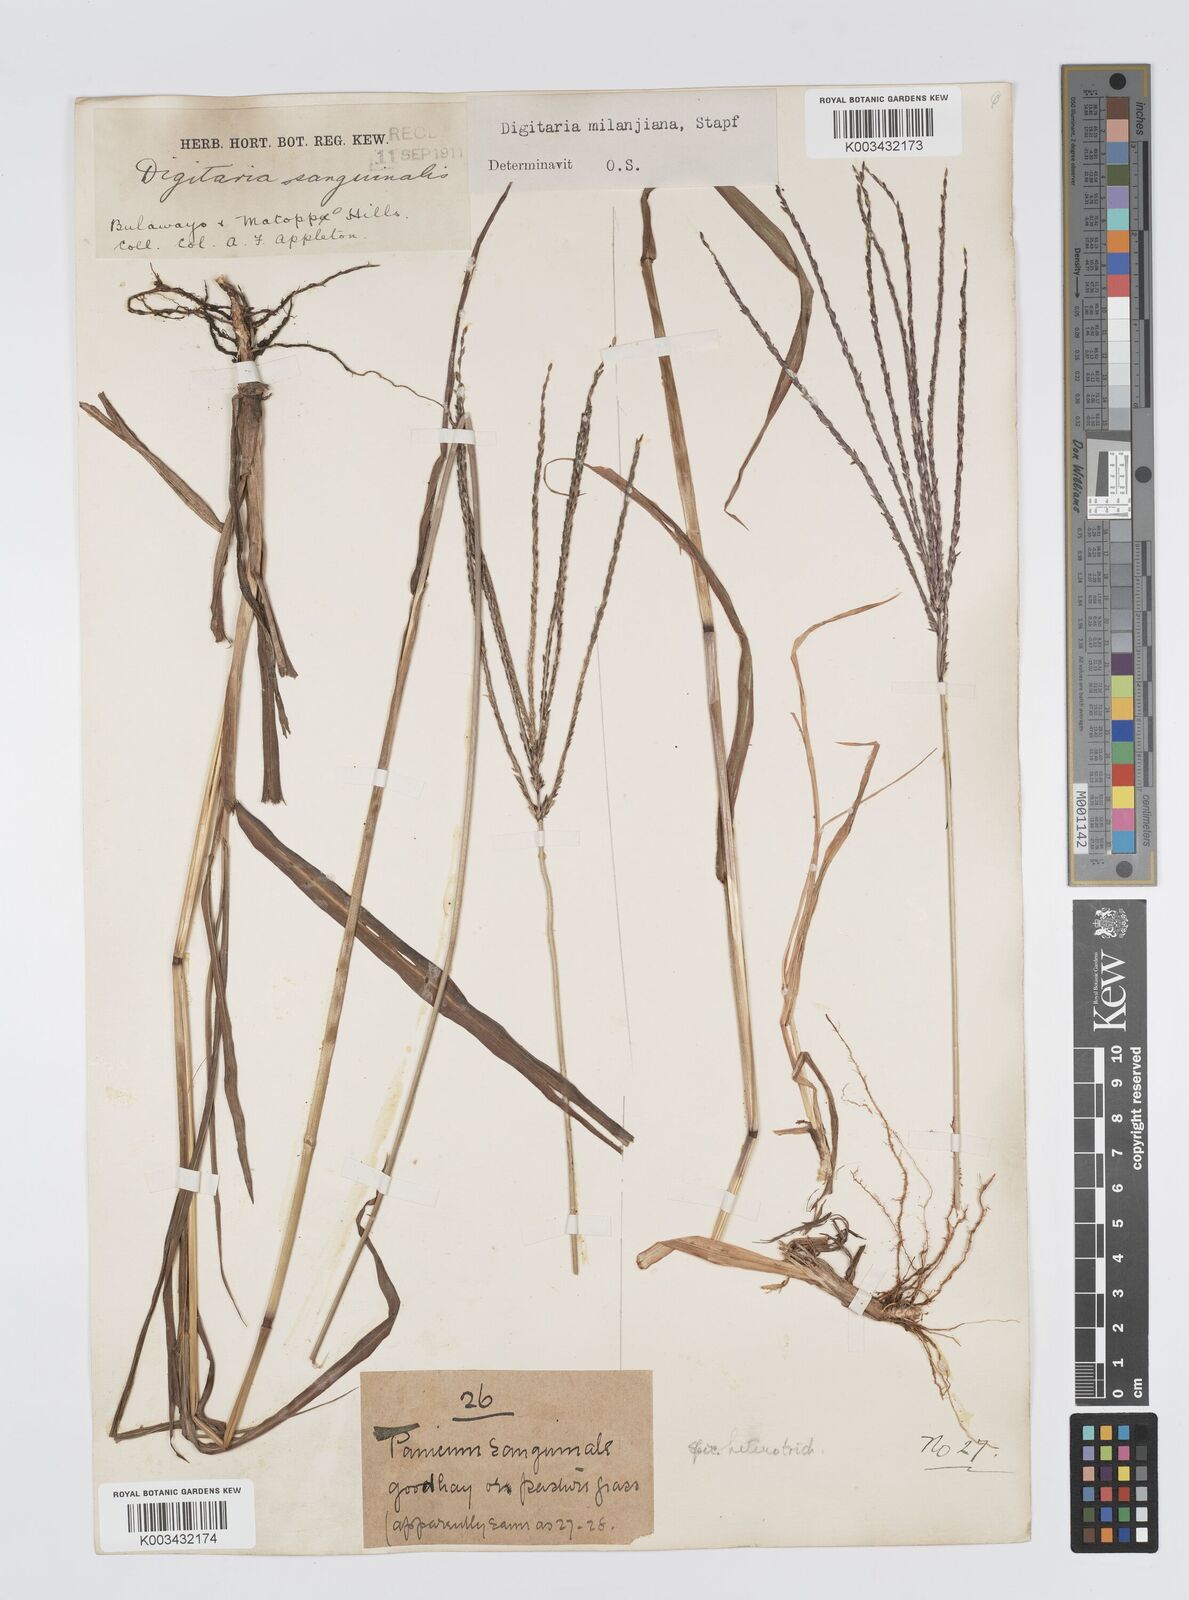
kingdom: Plantae
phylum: Tracheophyta
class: Liliopsida
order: Poales
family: Poaceae
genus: Digitaria
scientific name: Digitaria milanjiana
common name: Madagascar crabgrass
